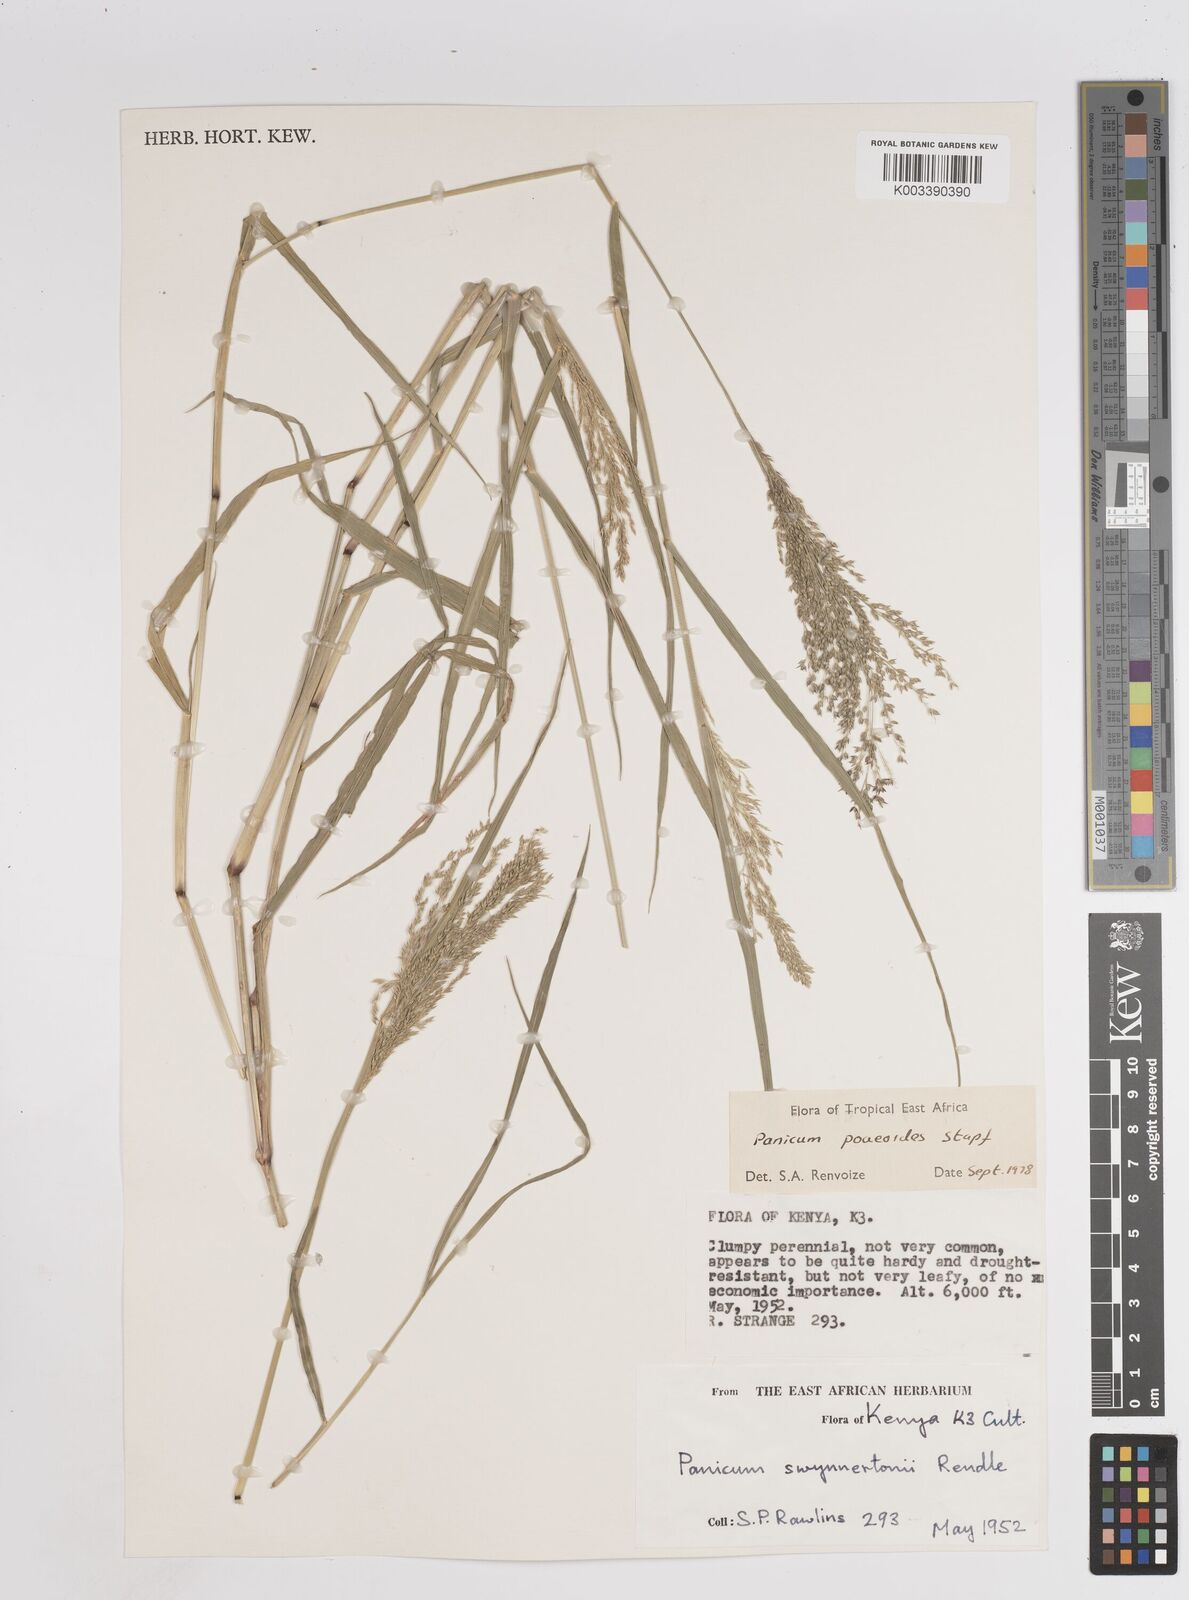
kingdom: Plantae
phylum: Tracheophyta
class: Liliopsida
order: Poales
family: Poaceae
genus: Panicum
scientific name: Panicum
